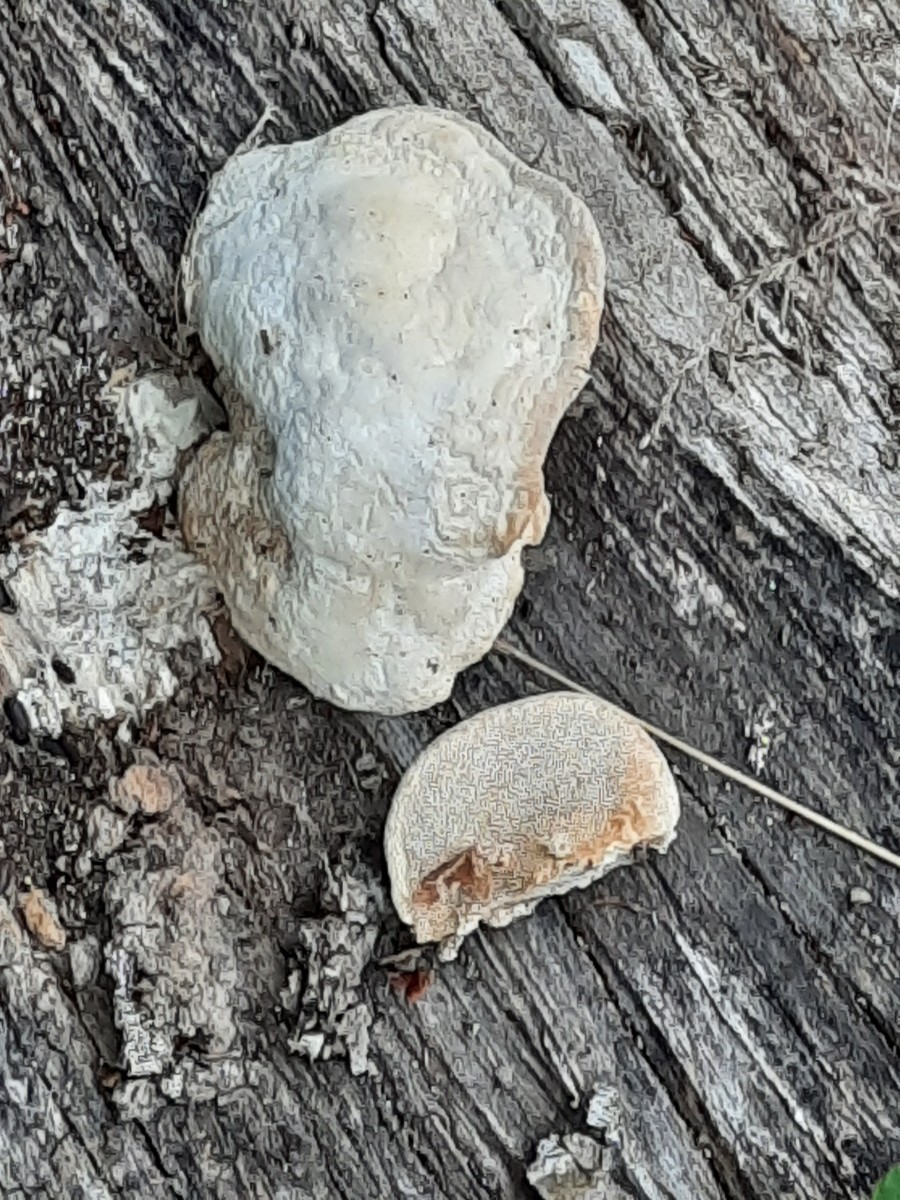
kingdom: Fungi
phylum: Basidiomycota
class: Agaricomycetes
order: Polyporales
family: Polyporaceae
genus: Trametes
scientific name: Trametes gibbosa
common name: puklet læderporesvamp
